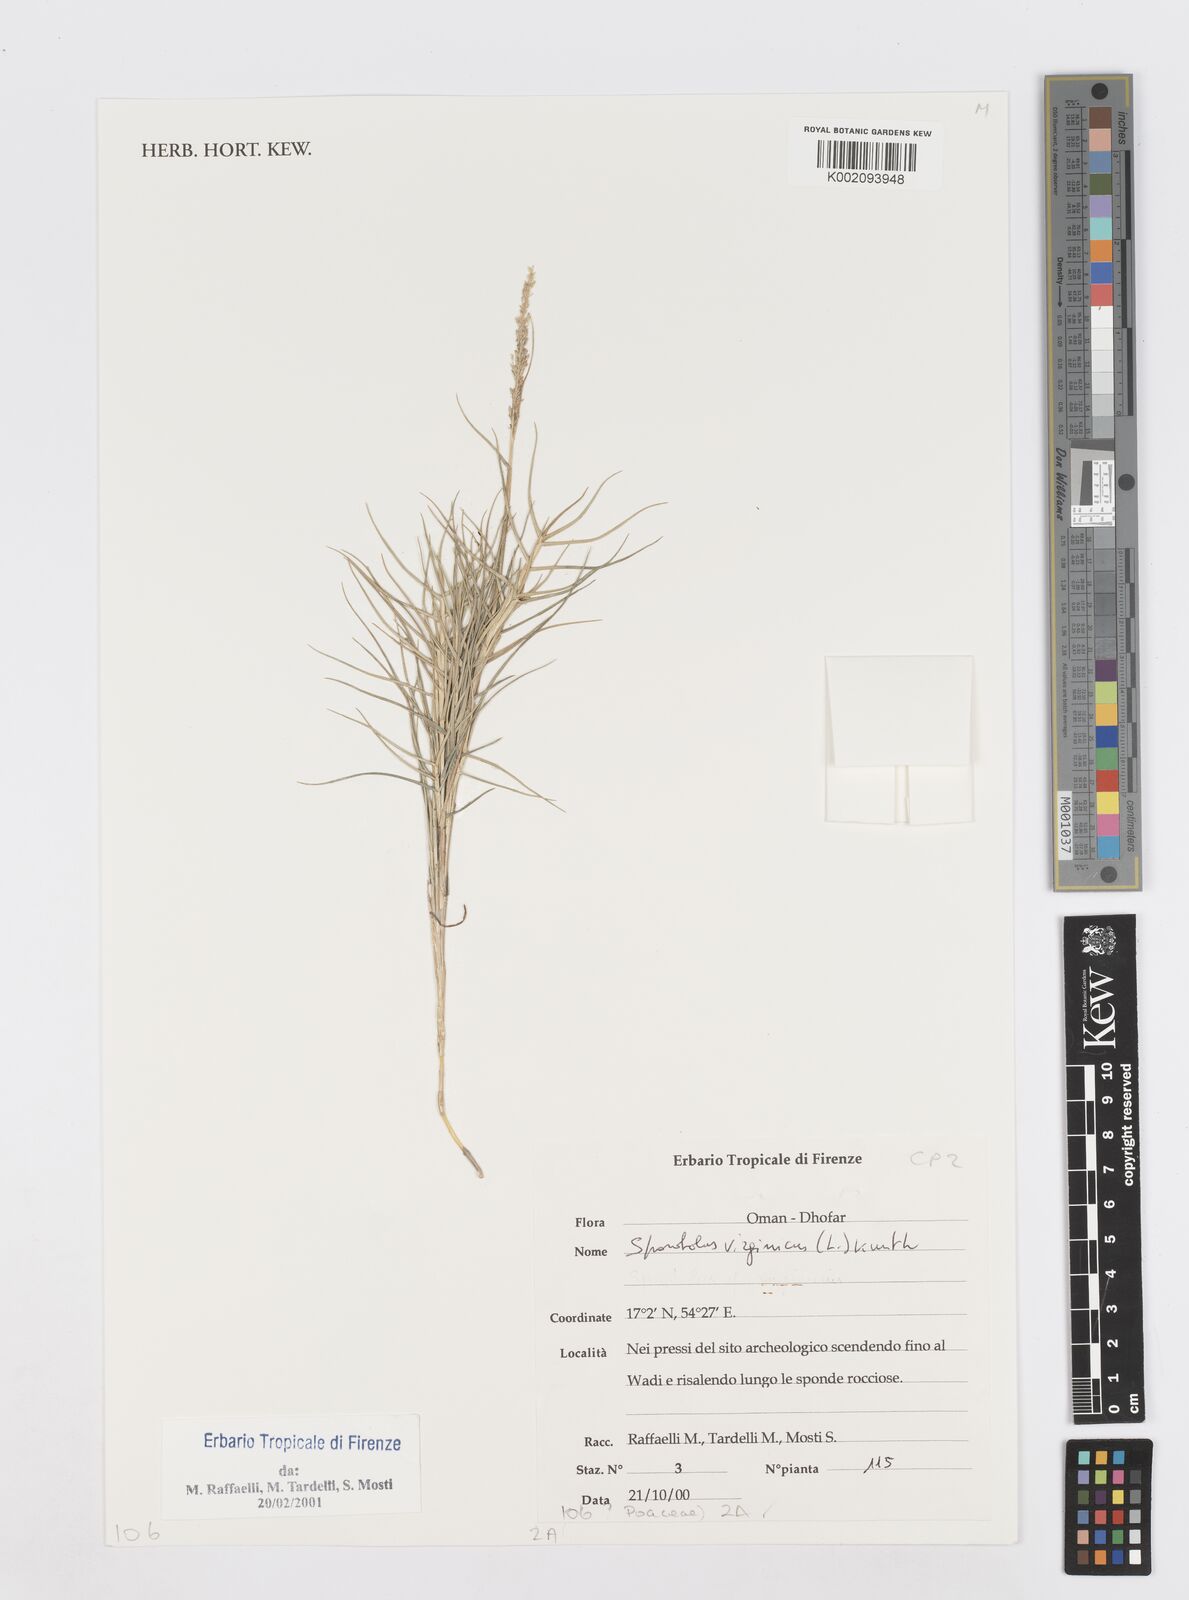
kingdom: Plantae
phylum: Tracheophyta
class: Liliopsida
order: Poales
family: Poaceae
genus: Sporobolus
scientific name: Sporobolus virginicus
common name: Beach dropseed
